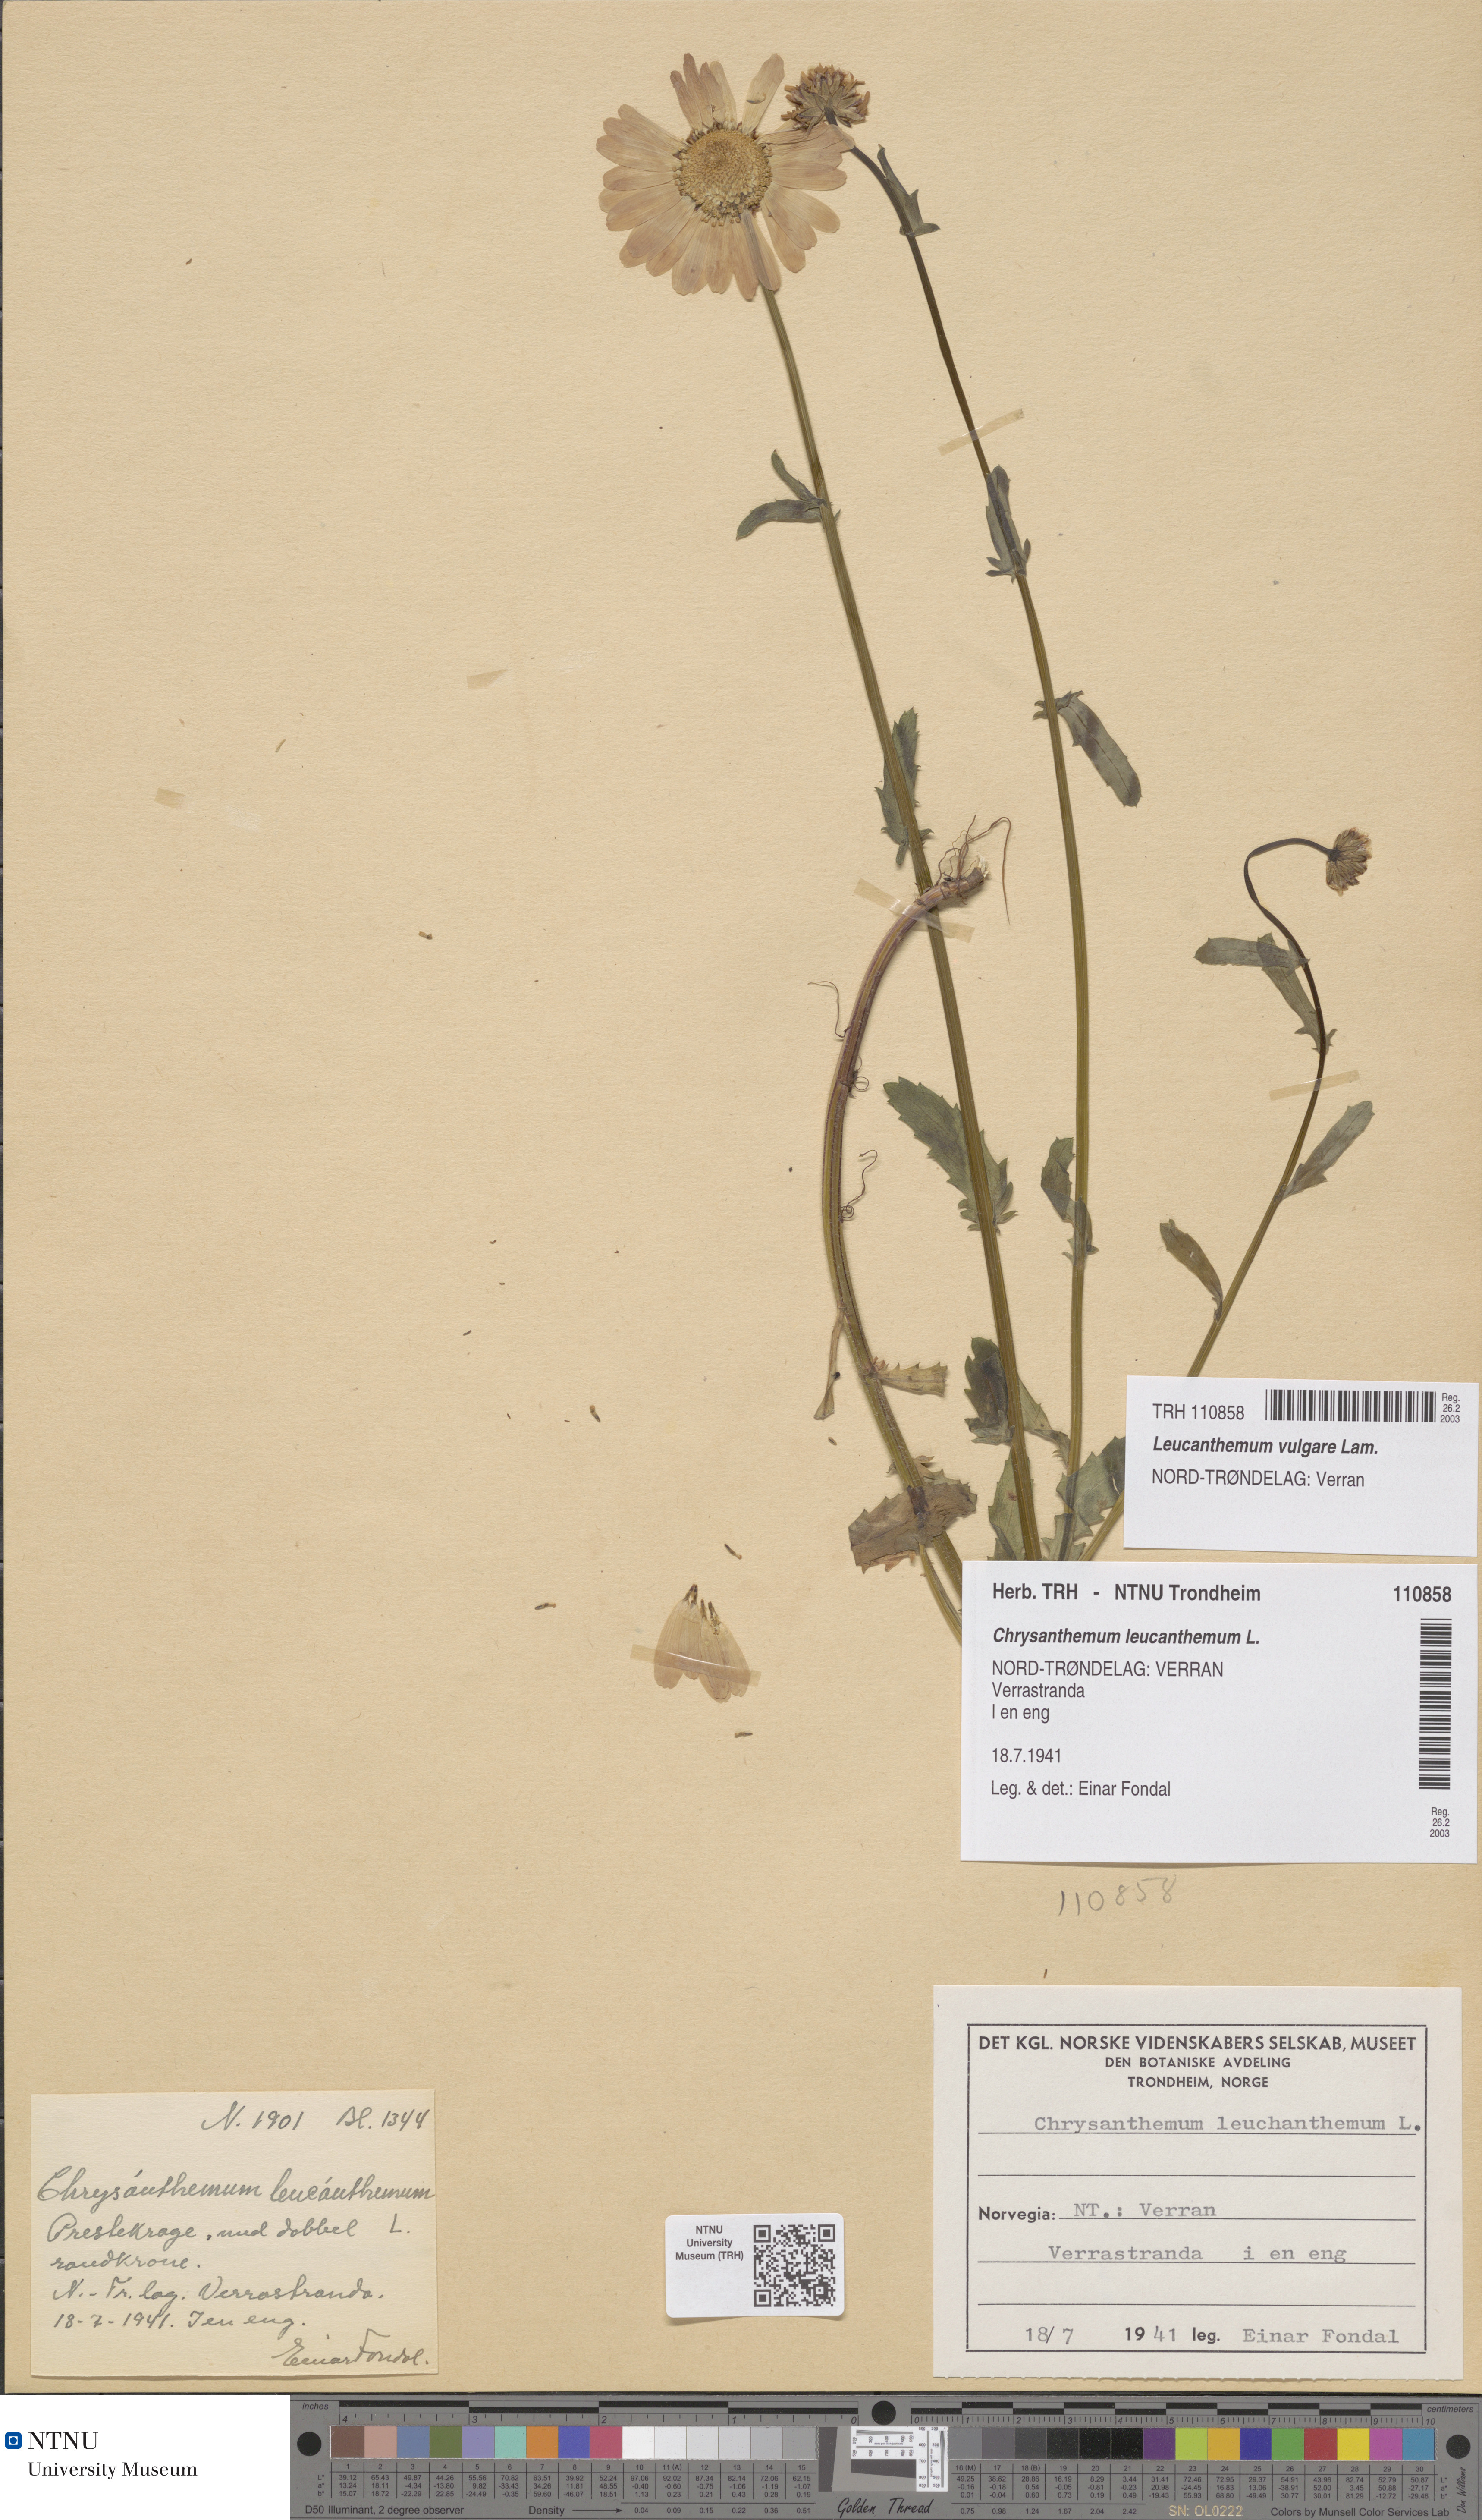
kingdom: Plantae
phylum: Tracheophyta
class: Magnoliopsida
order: Asterales
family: Asteraceae
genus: Leucanthemum
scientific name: Leucanthemum vulgare
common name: Oxeye daisy
